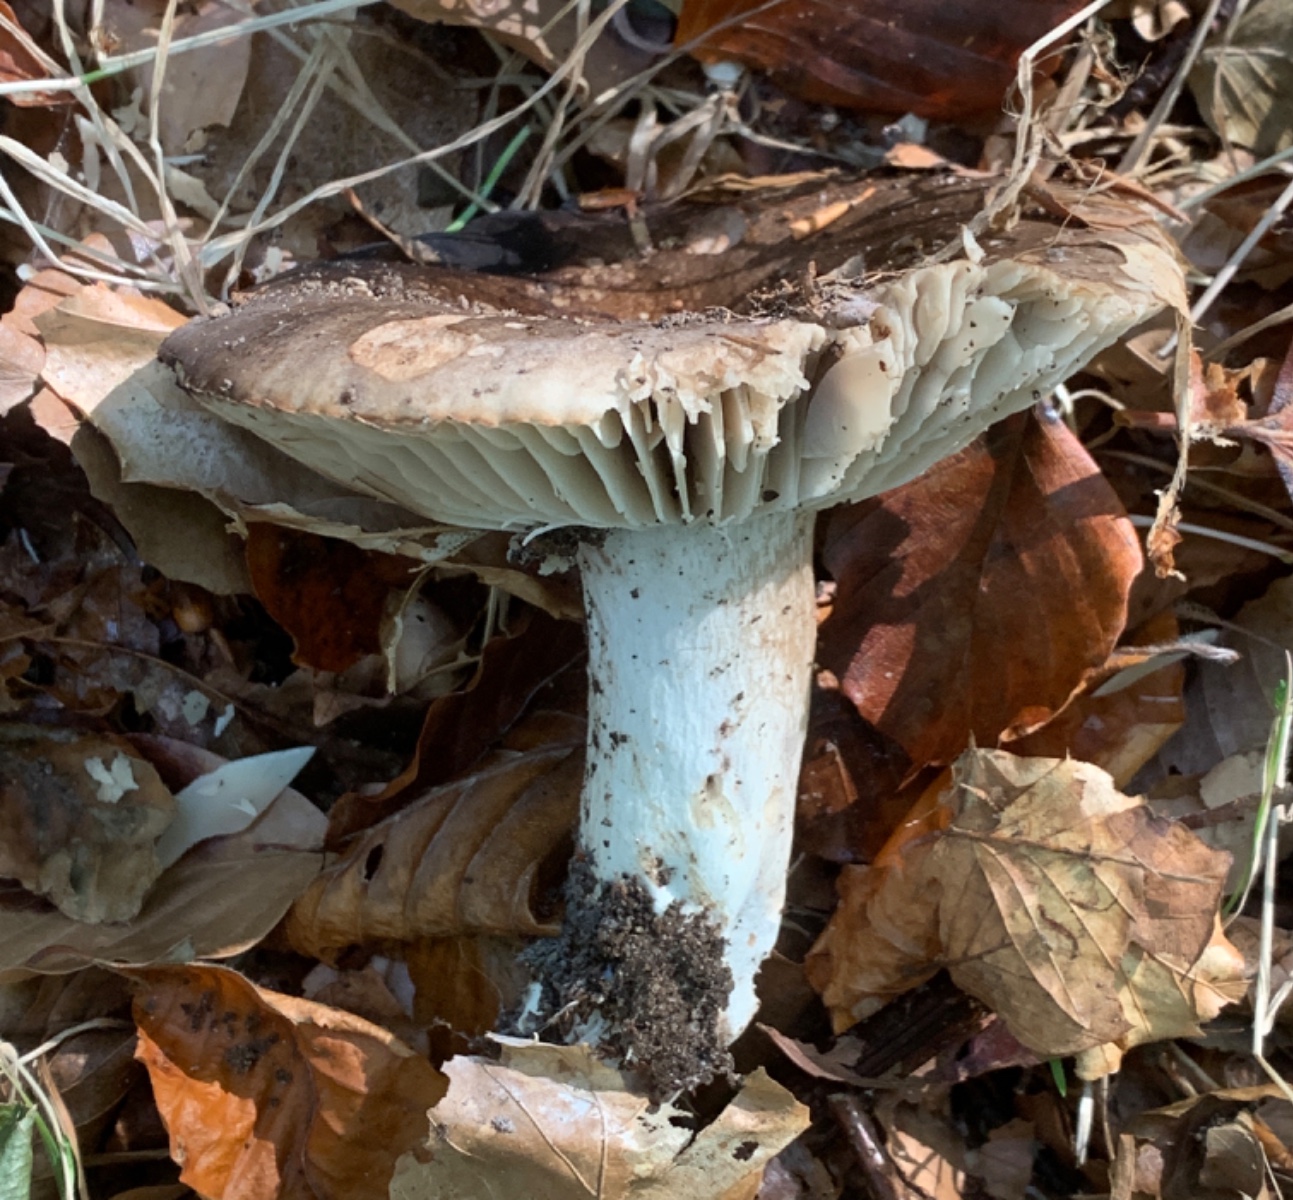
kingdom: Fungi
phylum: Basidiomycota
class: Agaricomycetes
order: Russulales
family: Russulaceae
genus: Russula
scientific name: Russula adusta
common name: sværtende skørhat
